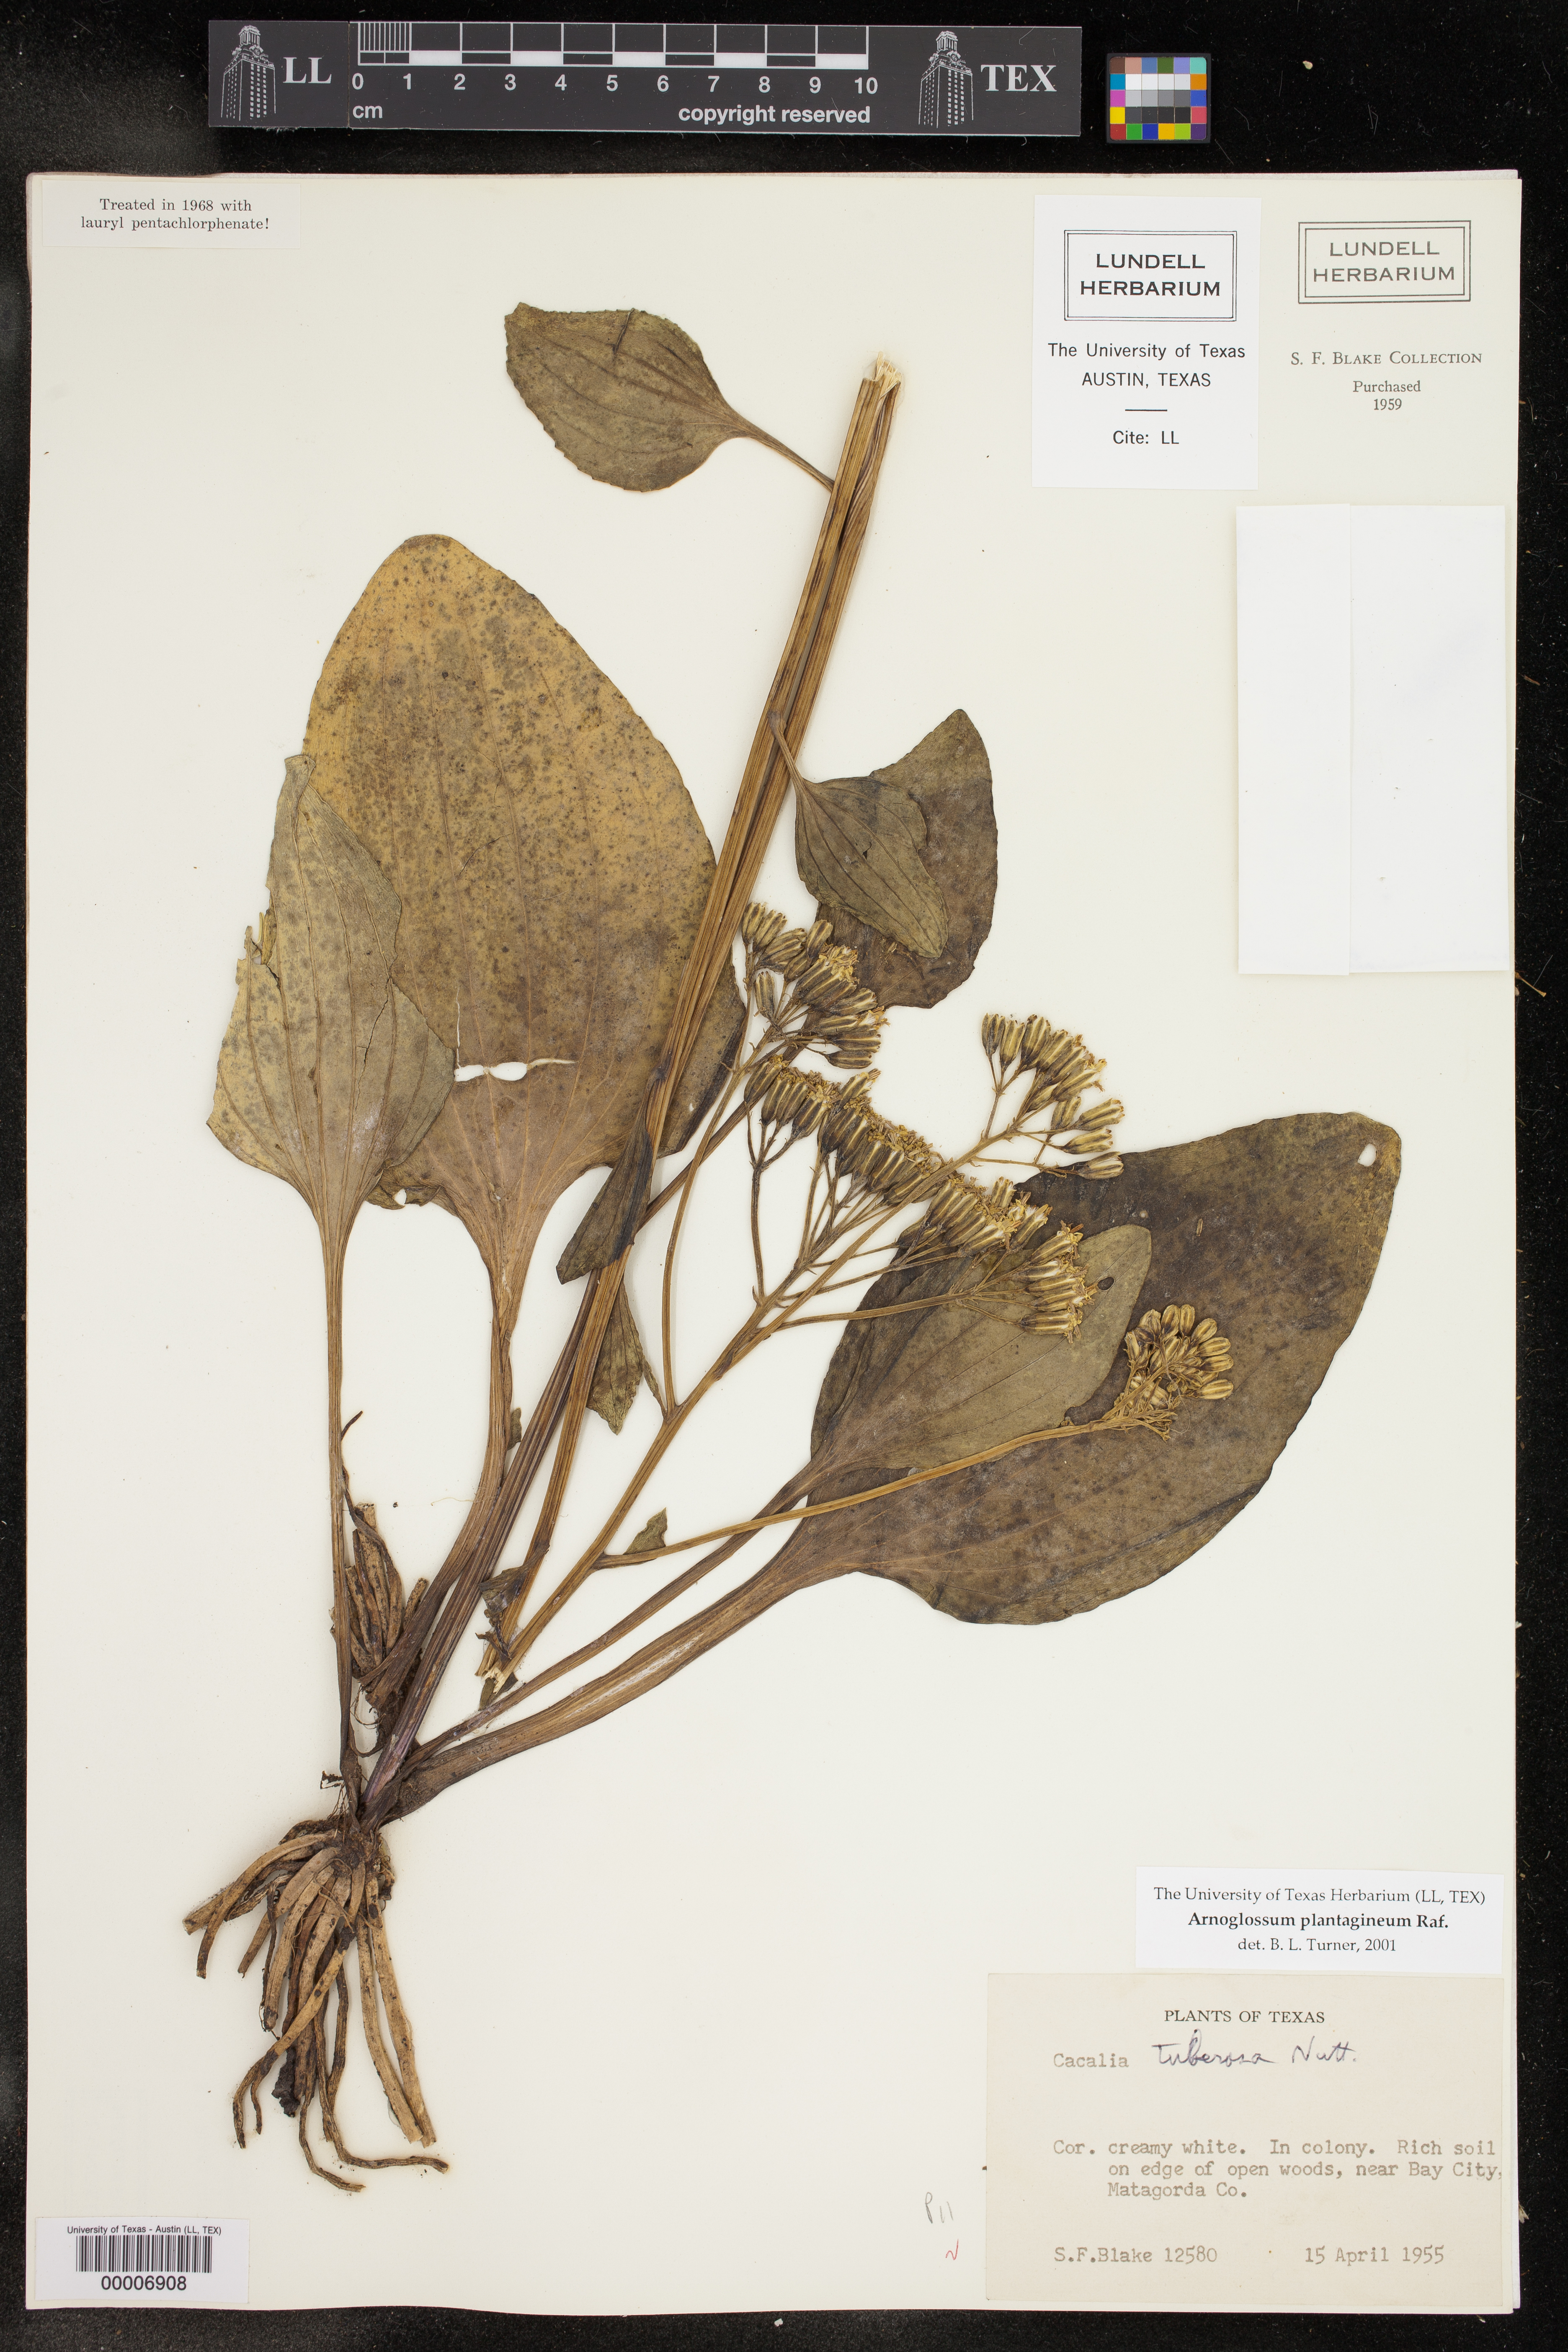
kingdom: Plantae
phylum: Tracheophyta
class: Magnoliopsida
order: Asterales
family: Asteraceae
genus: Arnoglossum
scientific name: Arnoglossum ovatum
